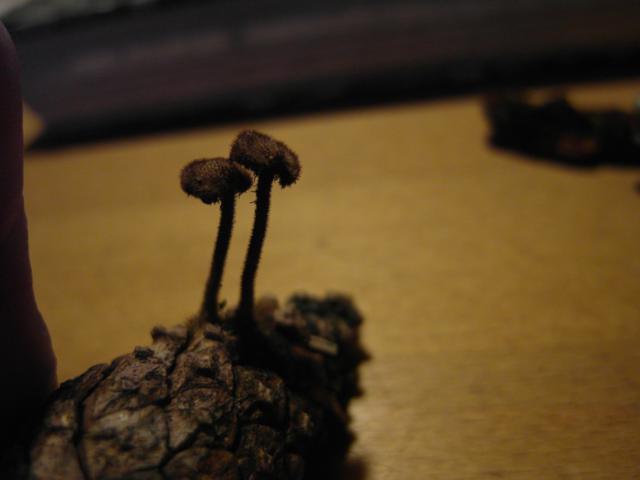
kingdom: Fungi
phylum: Basidiomycota
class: Agaricomycetes
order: Russulales
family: Auriscalpiaceae
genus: Auriscalpium
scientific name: Auriscalpium vulgare
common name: koglepigsvamp
